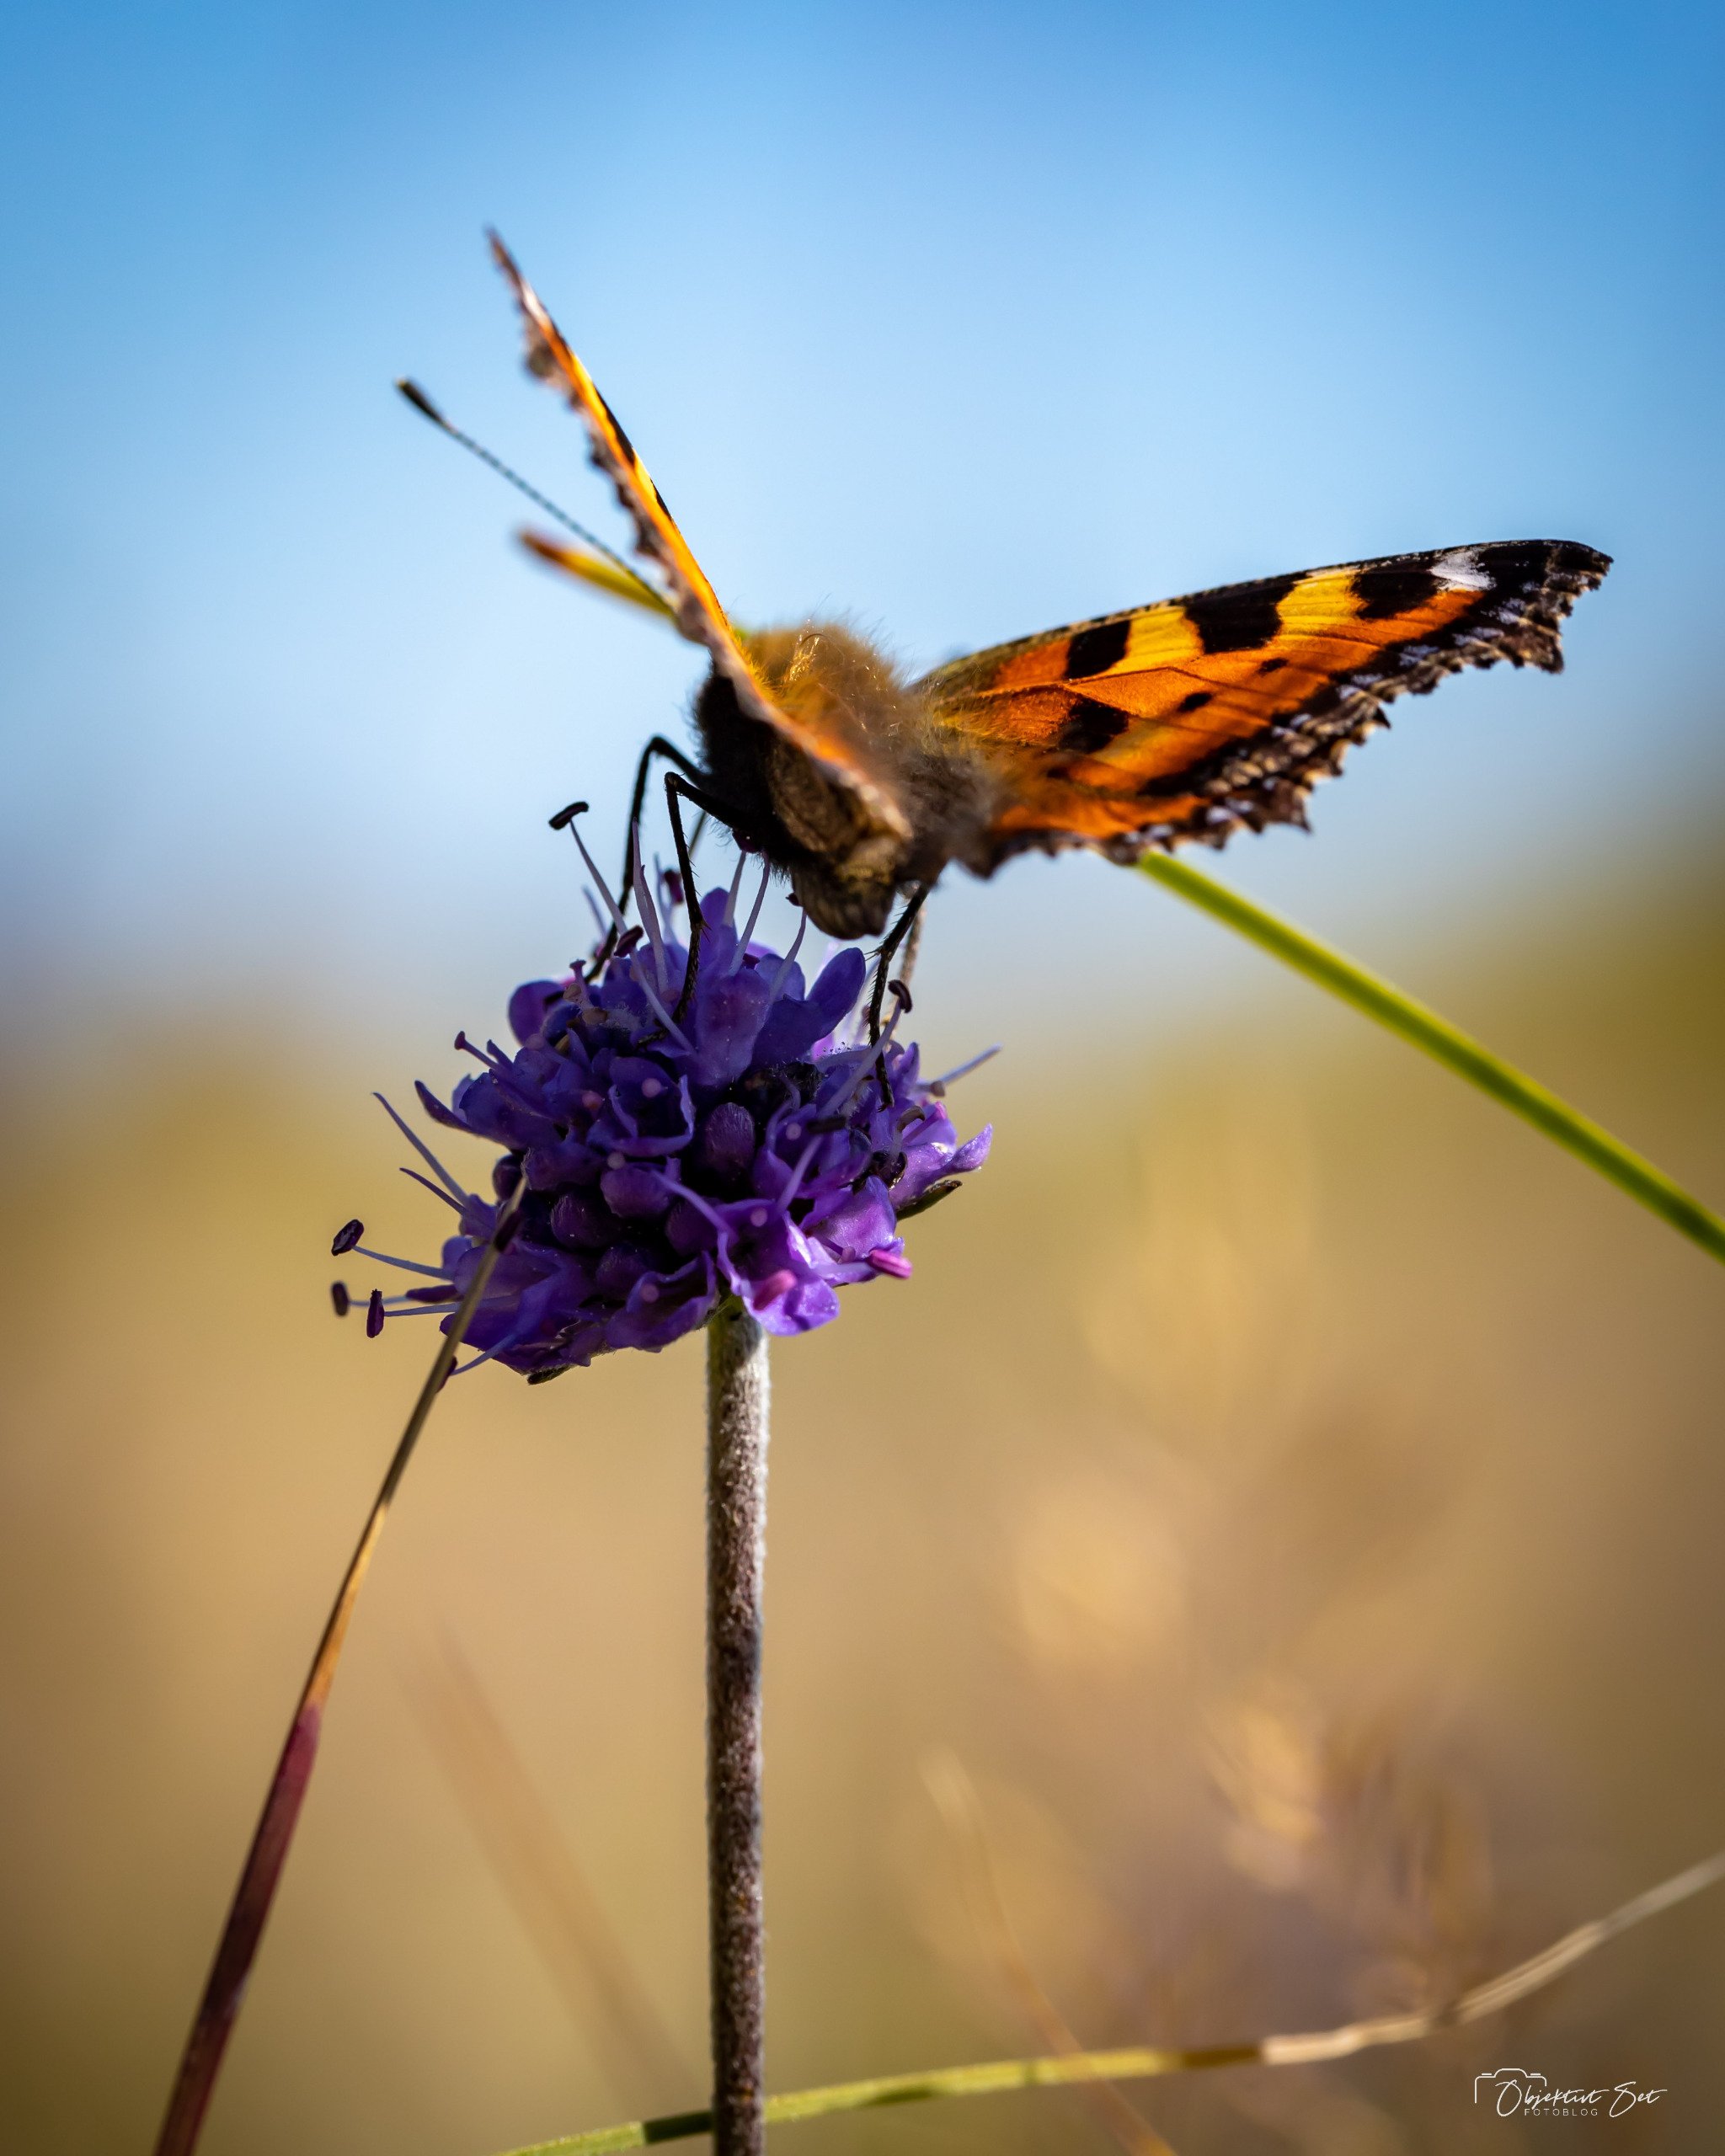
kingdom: Animalia
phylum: Arthropoda
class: Insecta
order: Lepidoptera
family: Nymphalidae
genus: Aglais
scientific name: Aglais urticae
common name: Nældens takvinge
